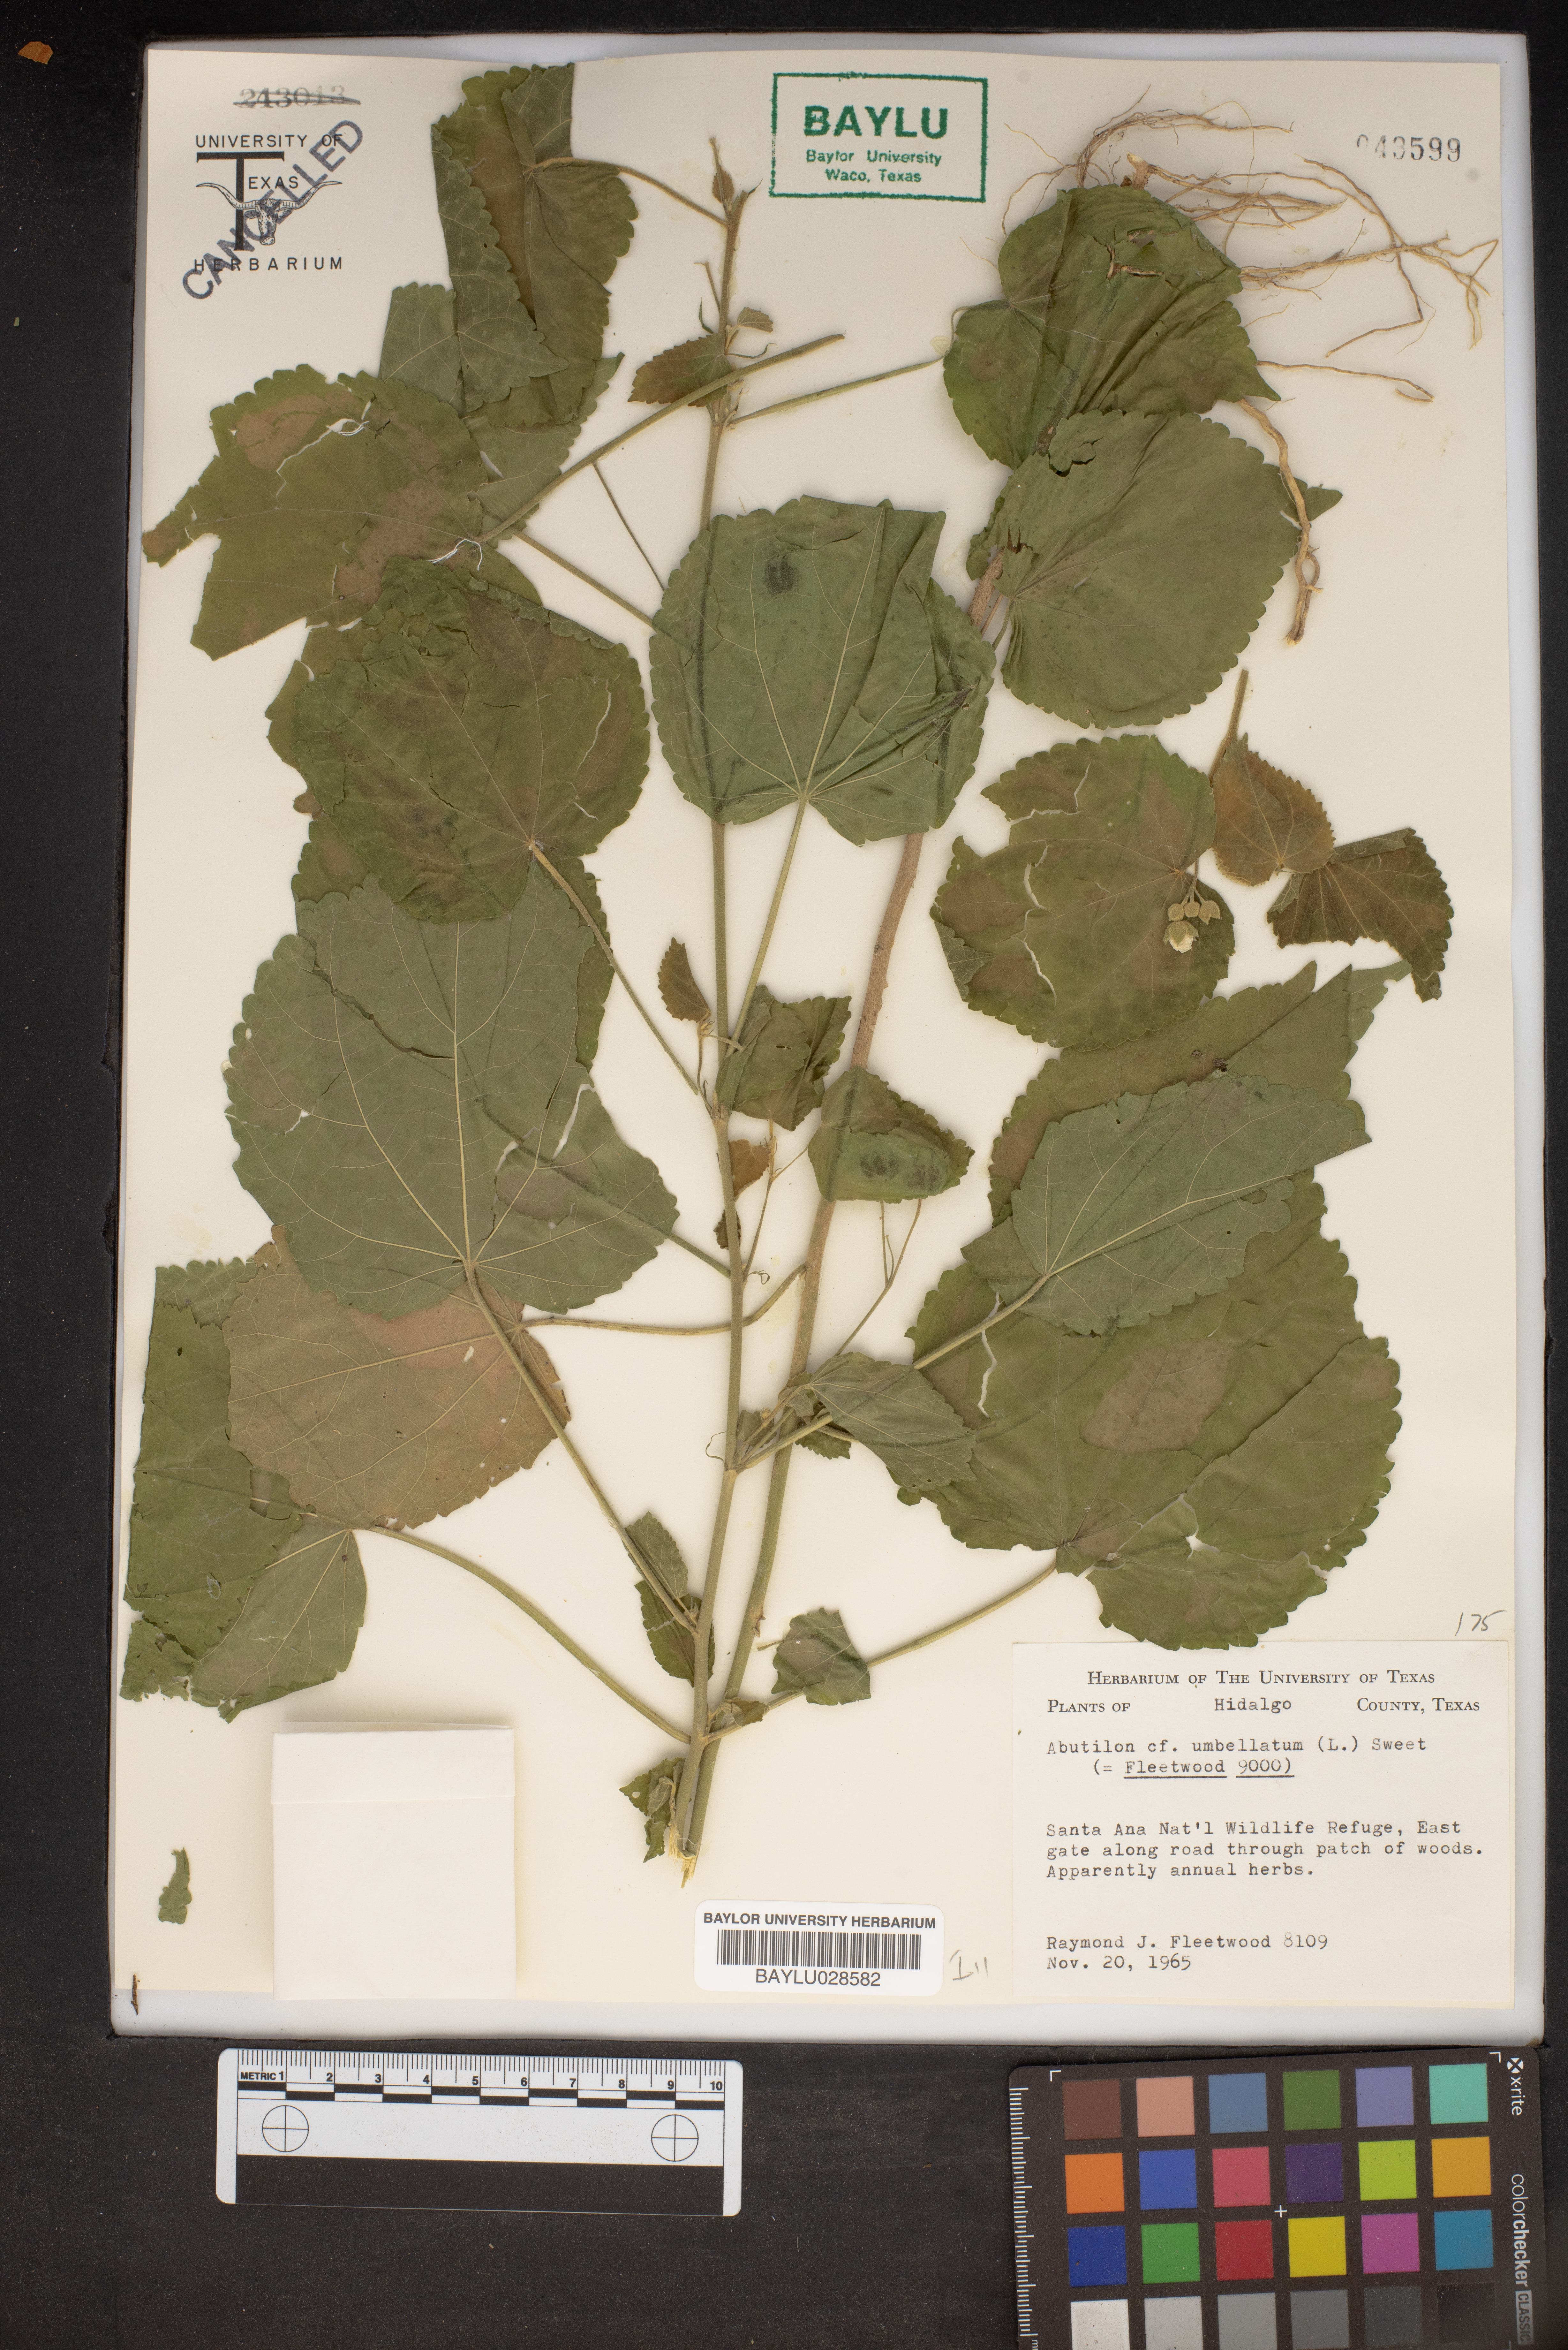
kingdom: Plantae
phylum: Tracheophyta
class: Magnoliopsida
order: Malvales
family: Malvaceae
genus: Pseudabutilon
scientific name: Pseudabutilon umbellatum
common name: Umbrella indian mallow
